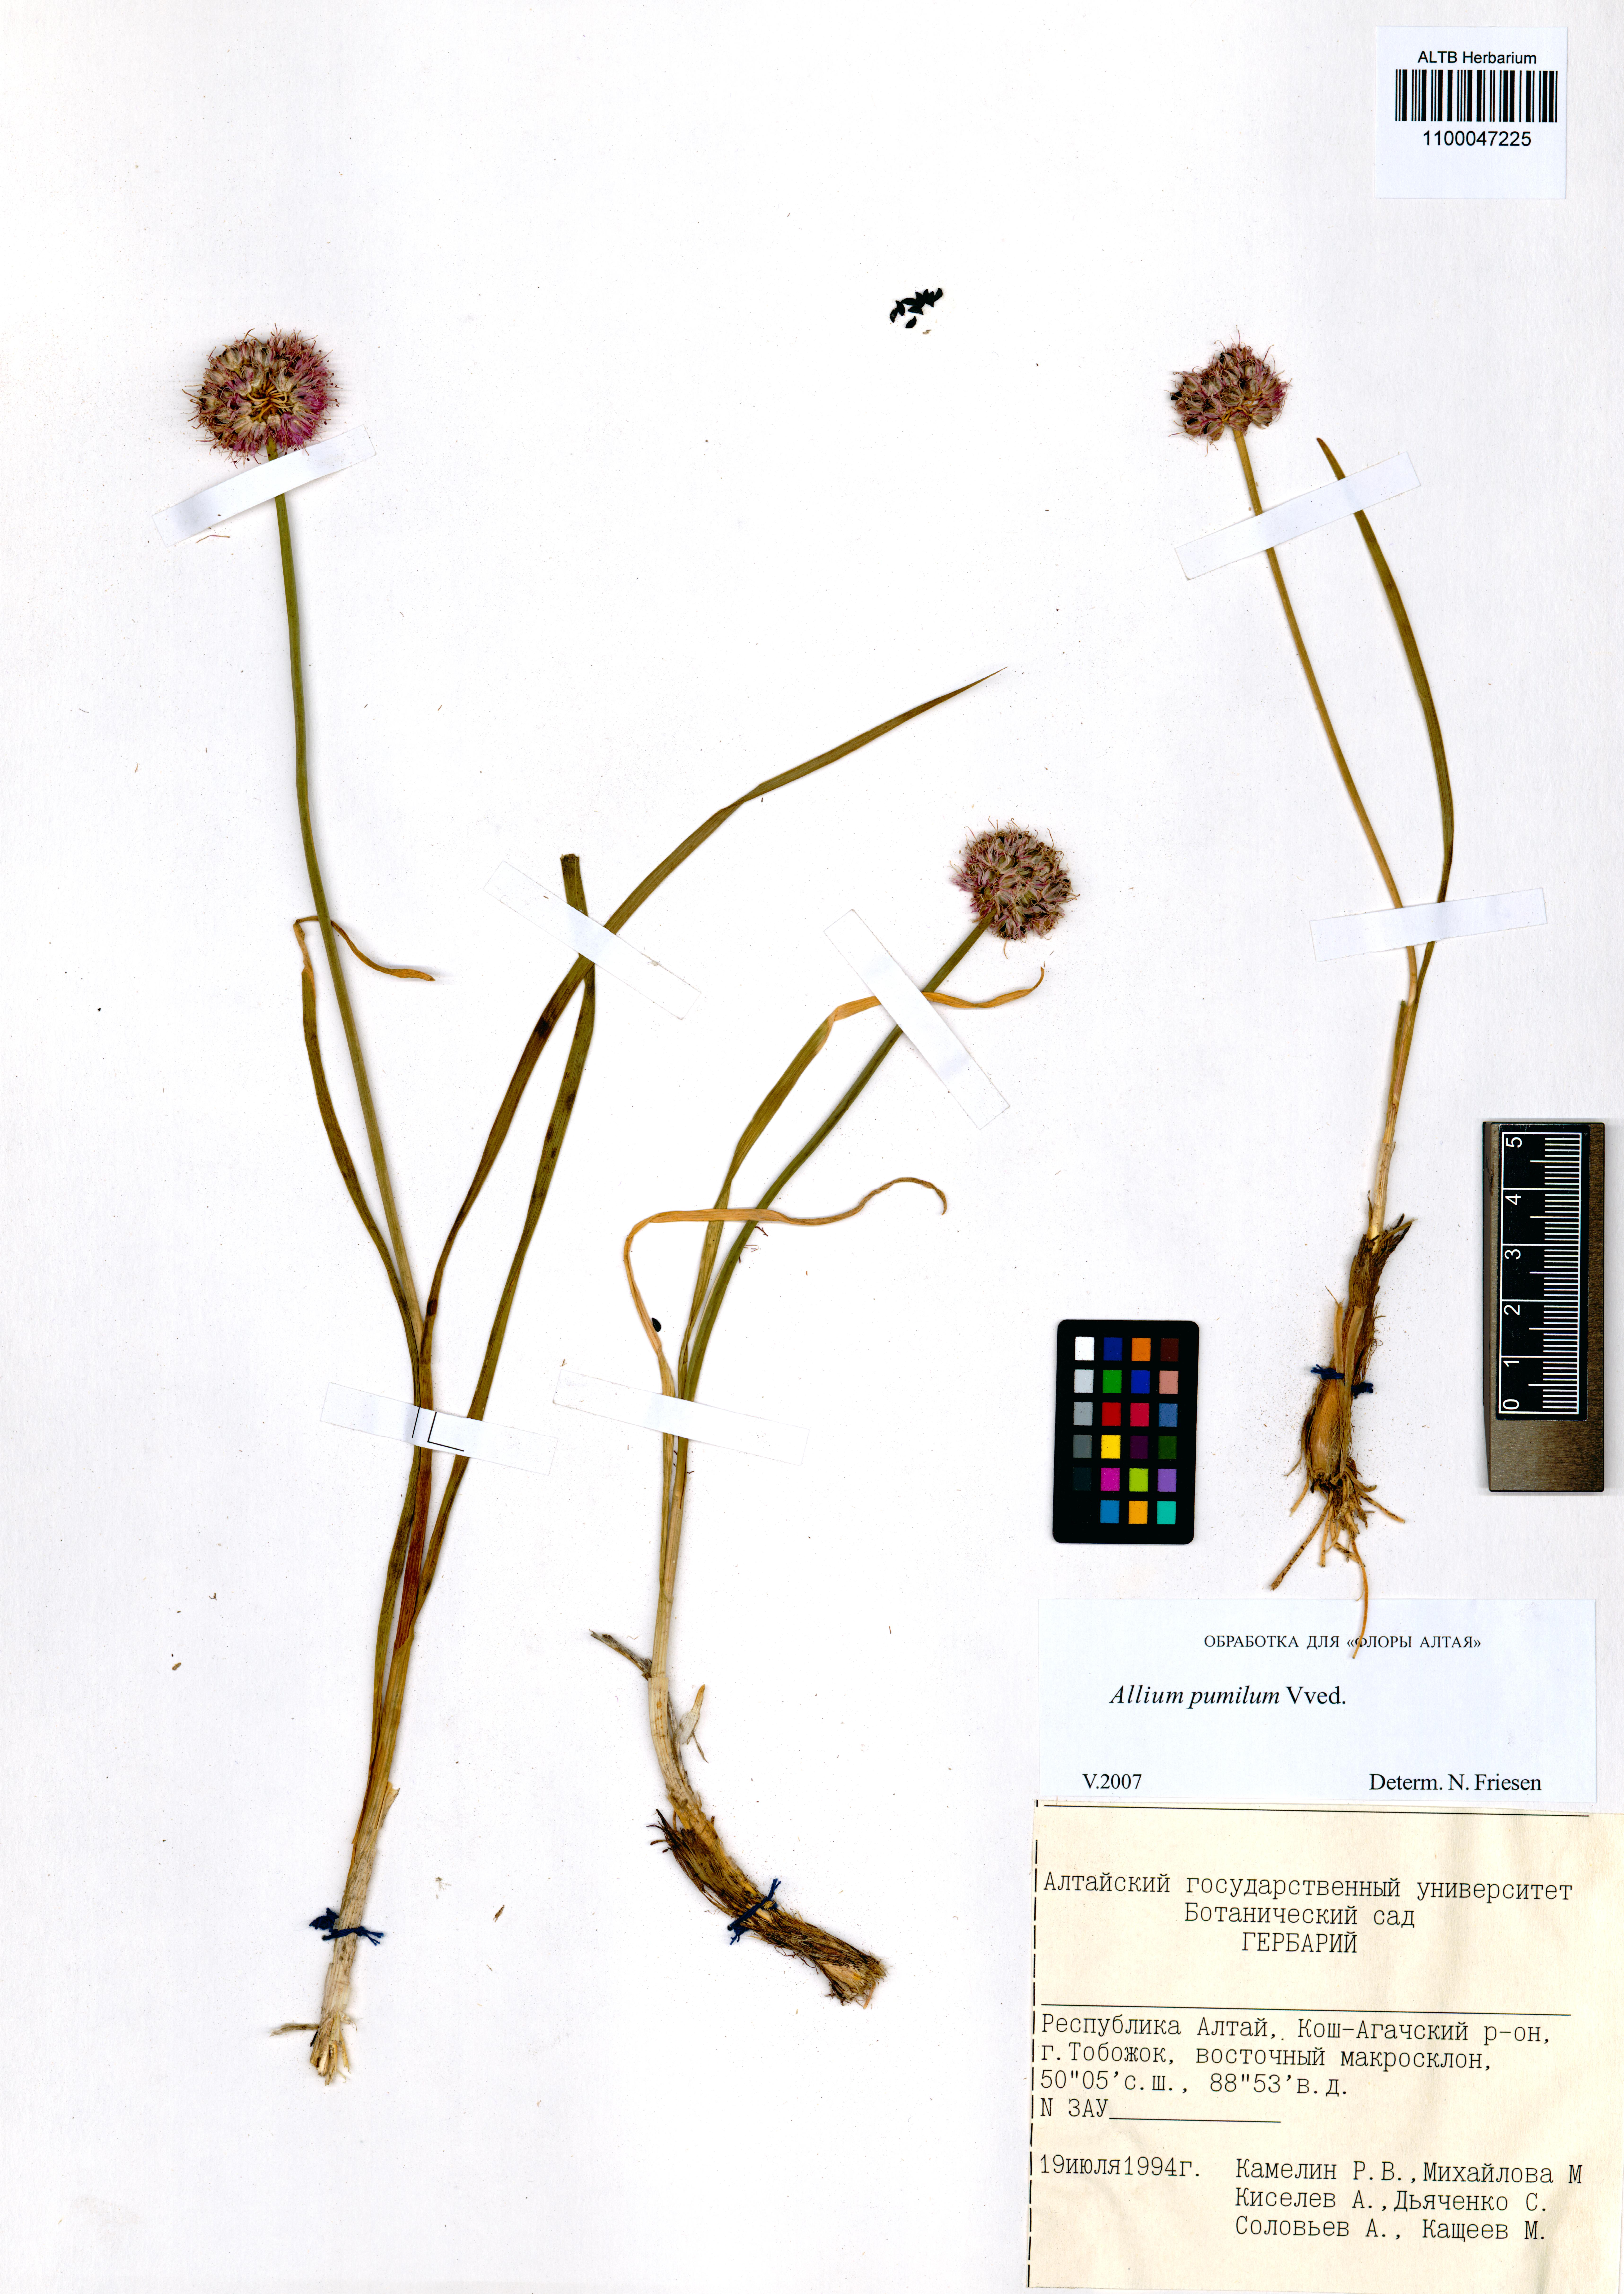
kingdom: Plantae
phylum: Tracheophyta
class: Liliopsida
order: Asparagales
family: Amaryllidaceae
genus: Allium
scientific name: Allium pumilum
